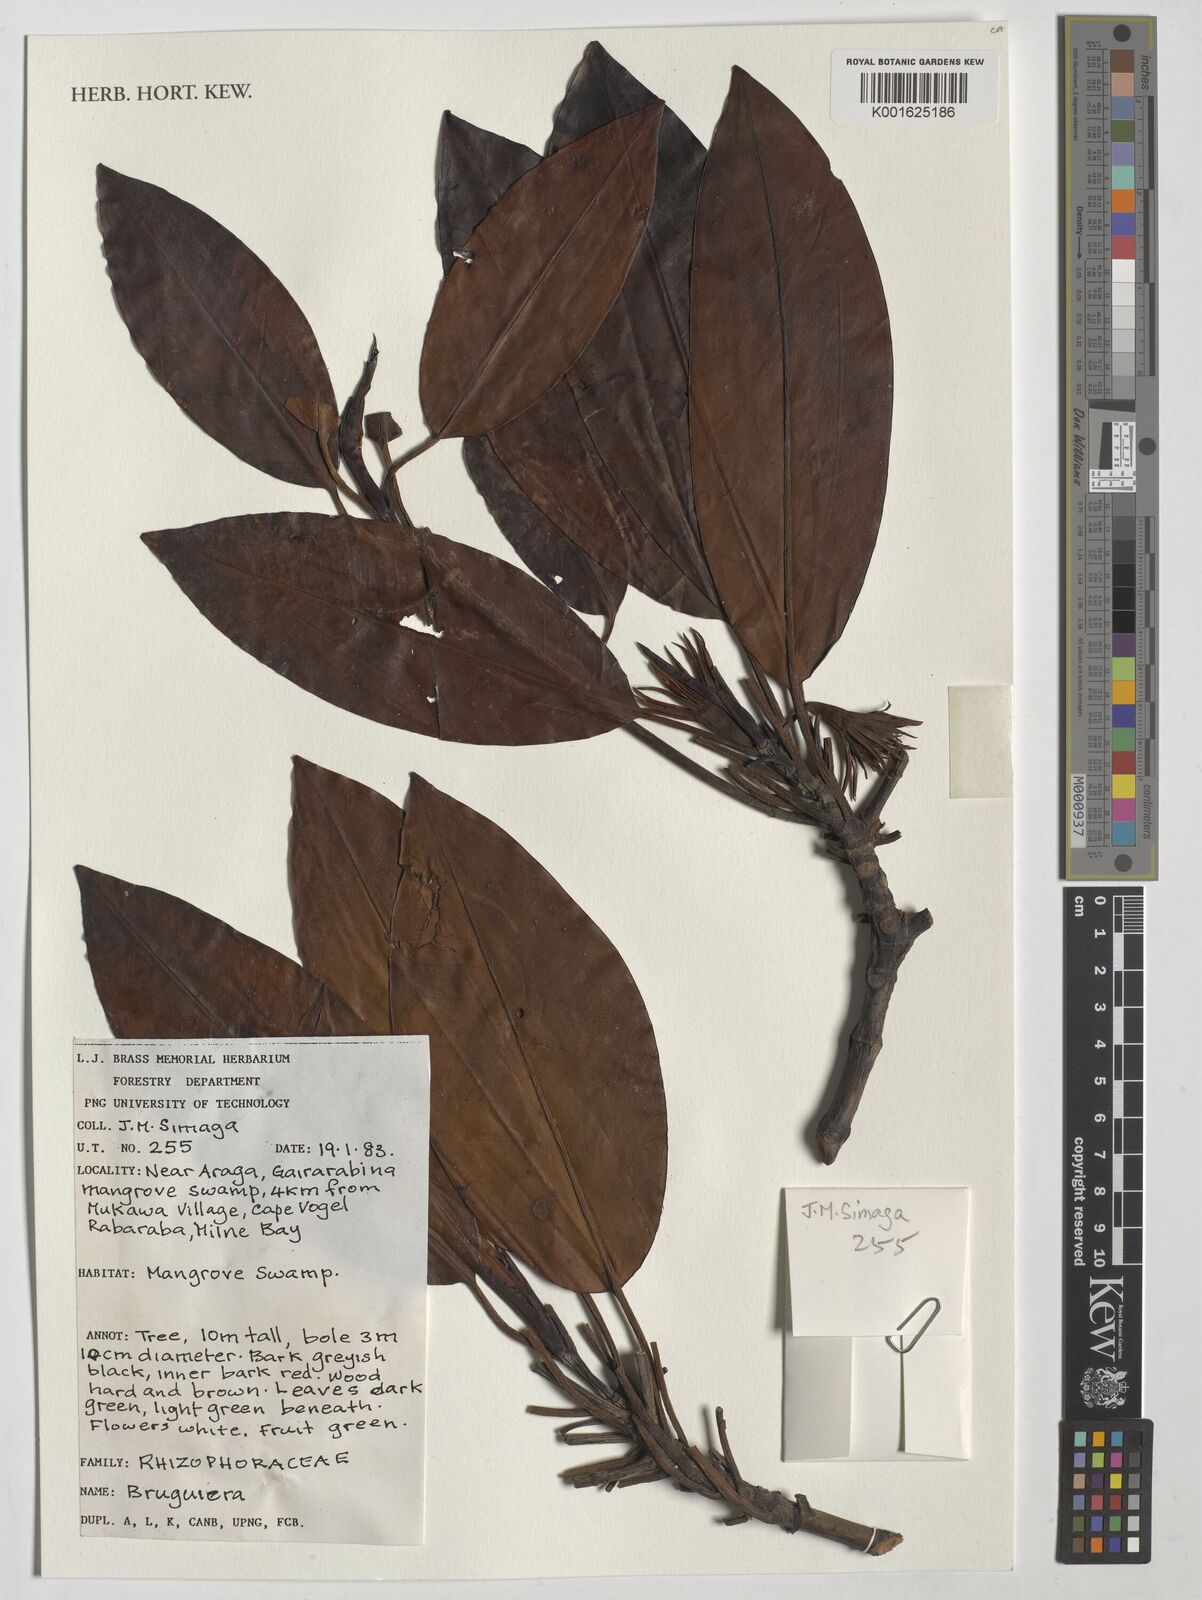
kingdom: Plantae
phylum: Tracheophyta
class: Magnoliopsida
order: Malpighiales
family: Rhizophoraceae
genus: Bruguiera
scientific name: Bruguiera
